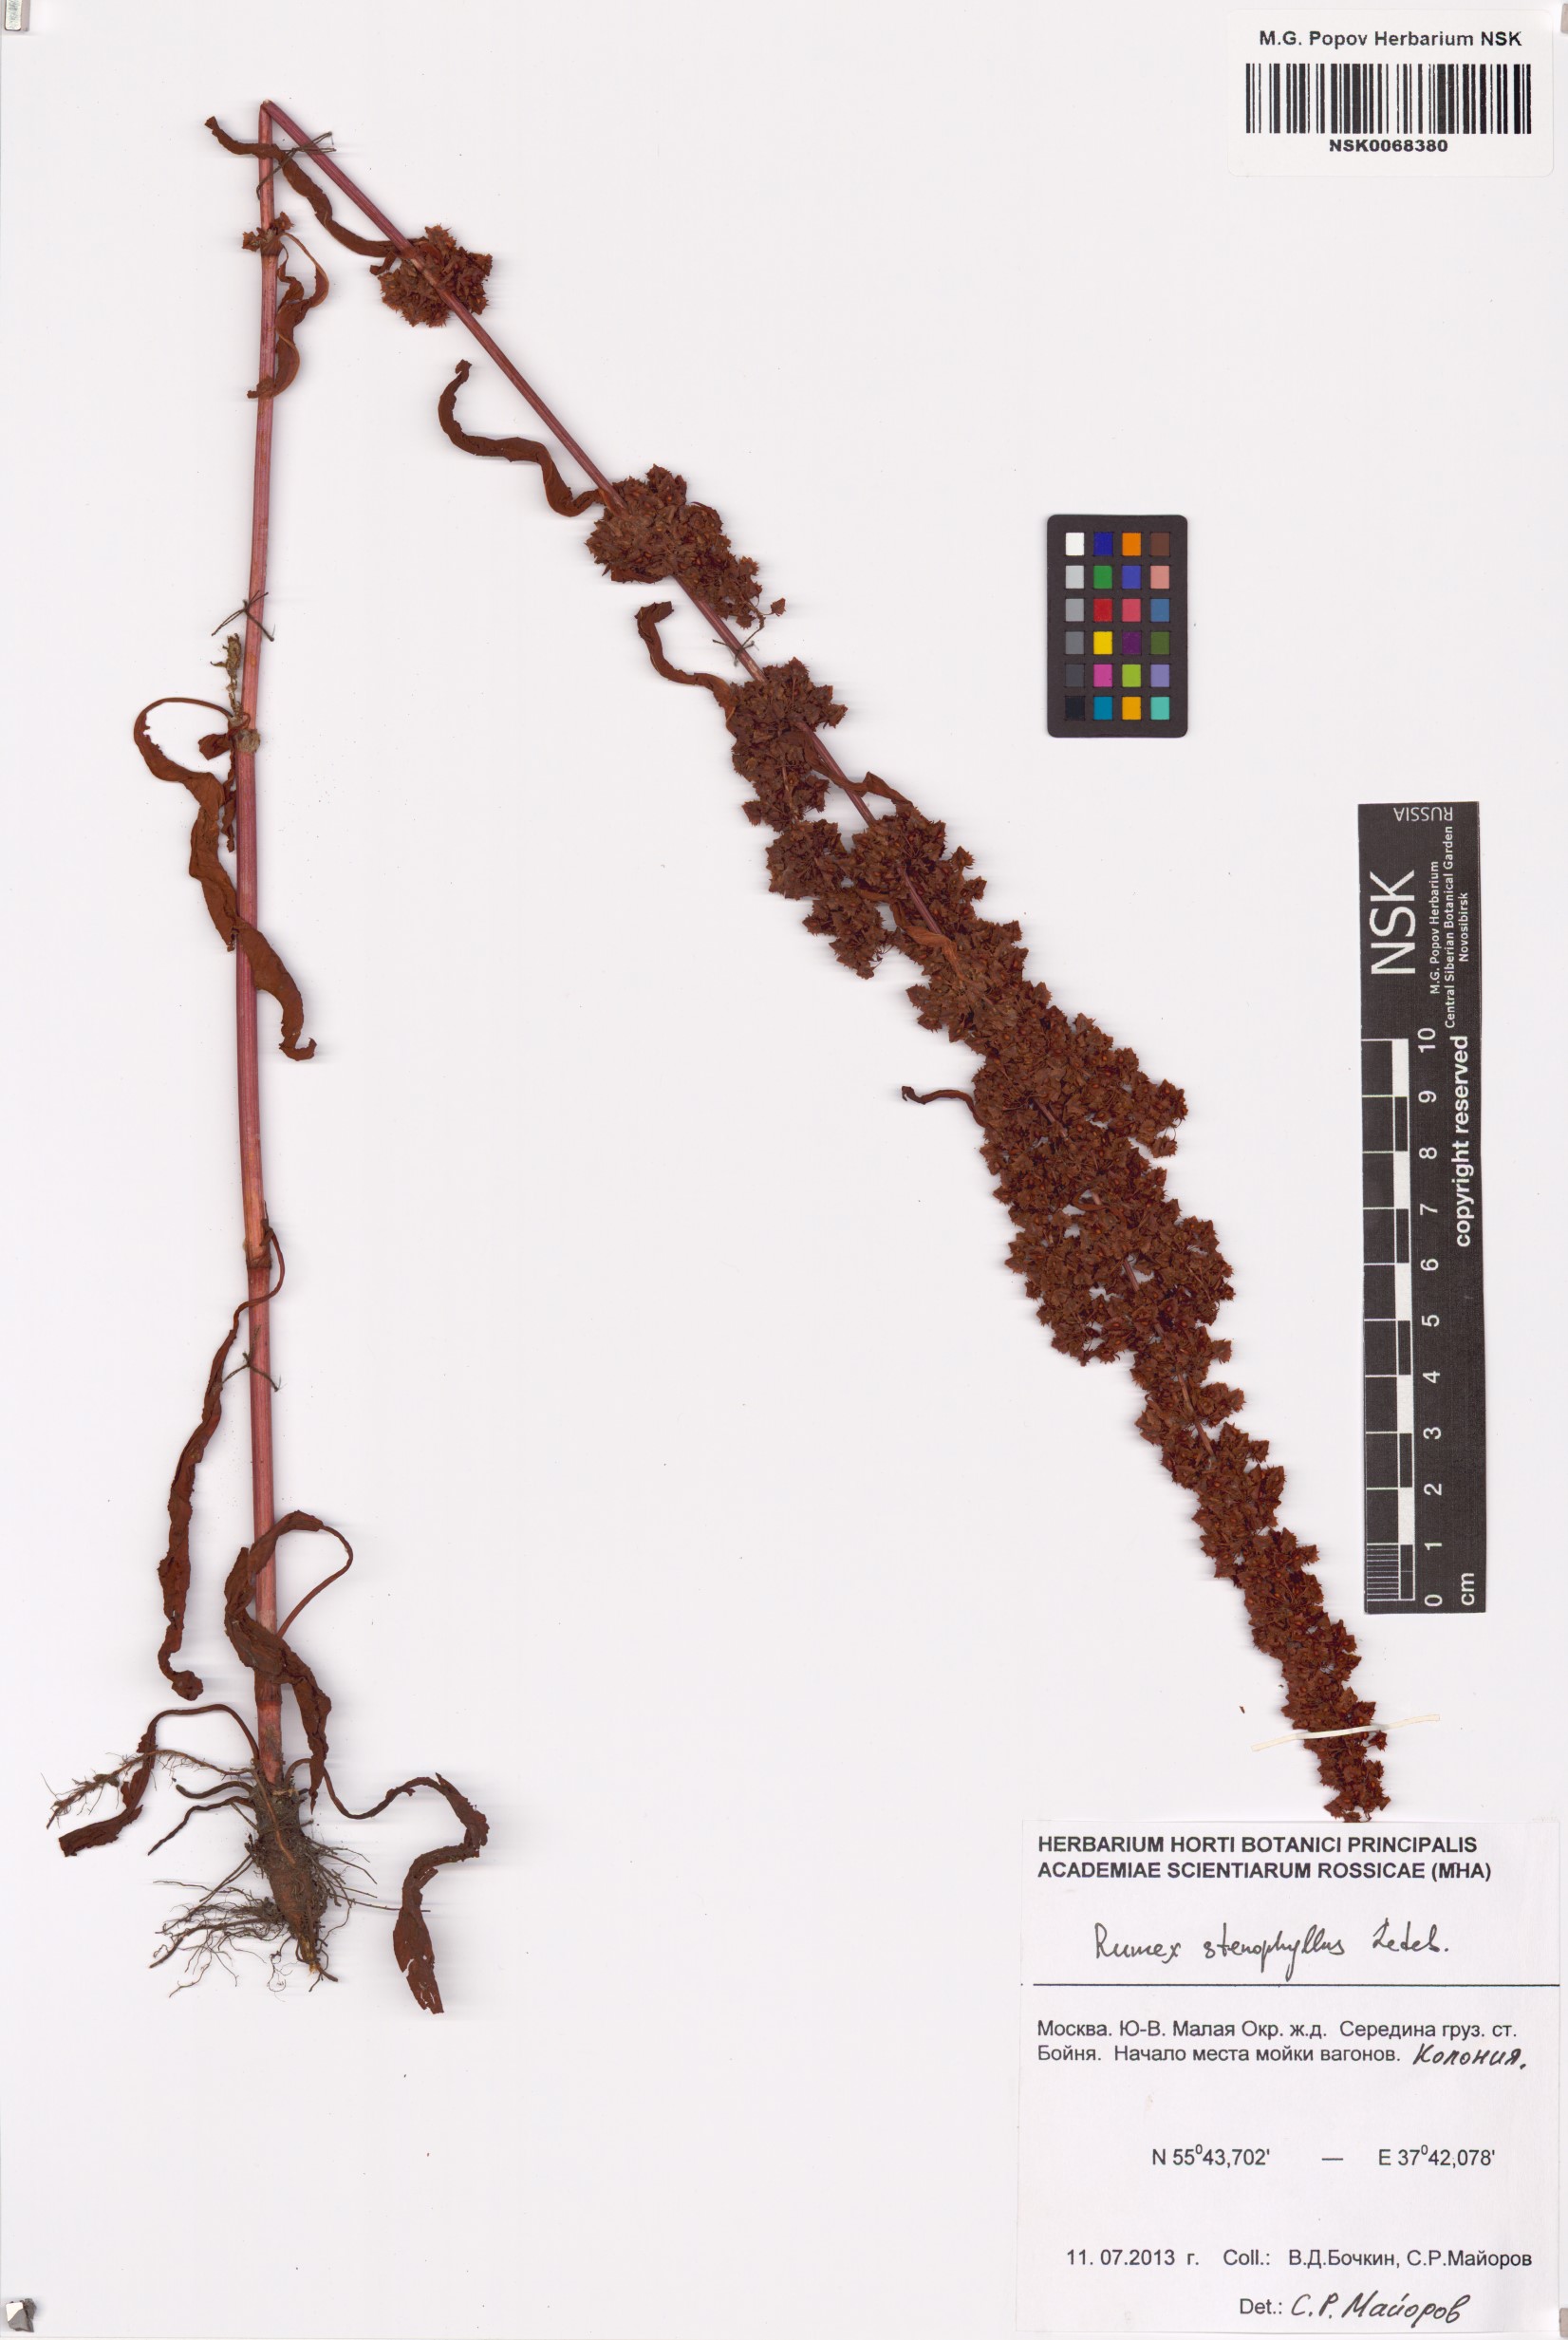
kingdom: Plantae
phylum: Tracheophyta
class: Magnoliopsida
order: Caryophyllales
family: Polygonaceae
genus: Rumex
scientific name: Rumex stenophyllus
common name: Narrowleaf dock
